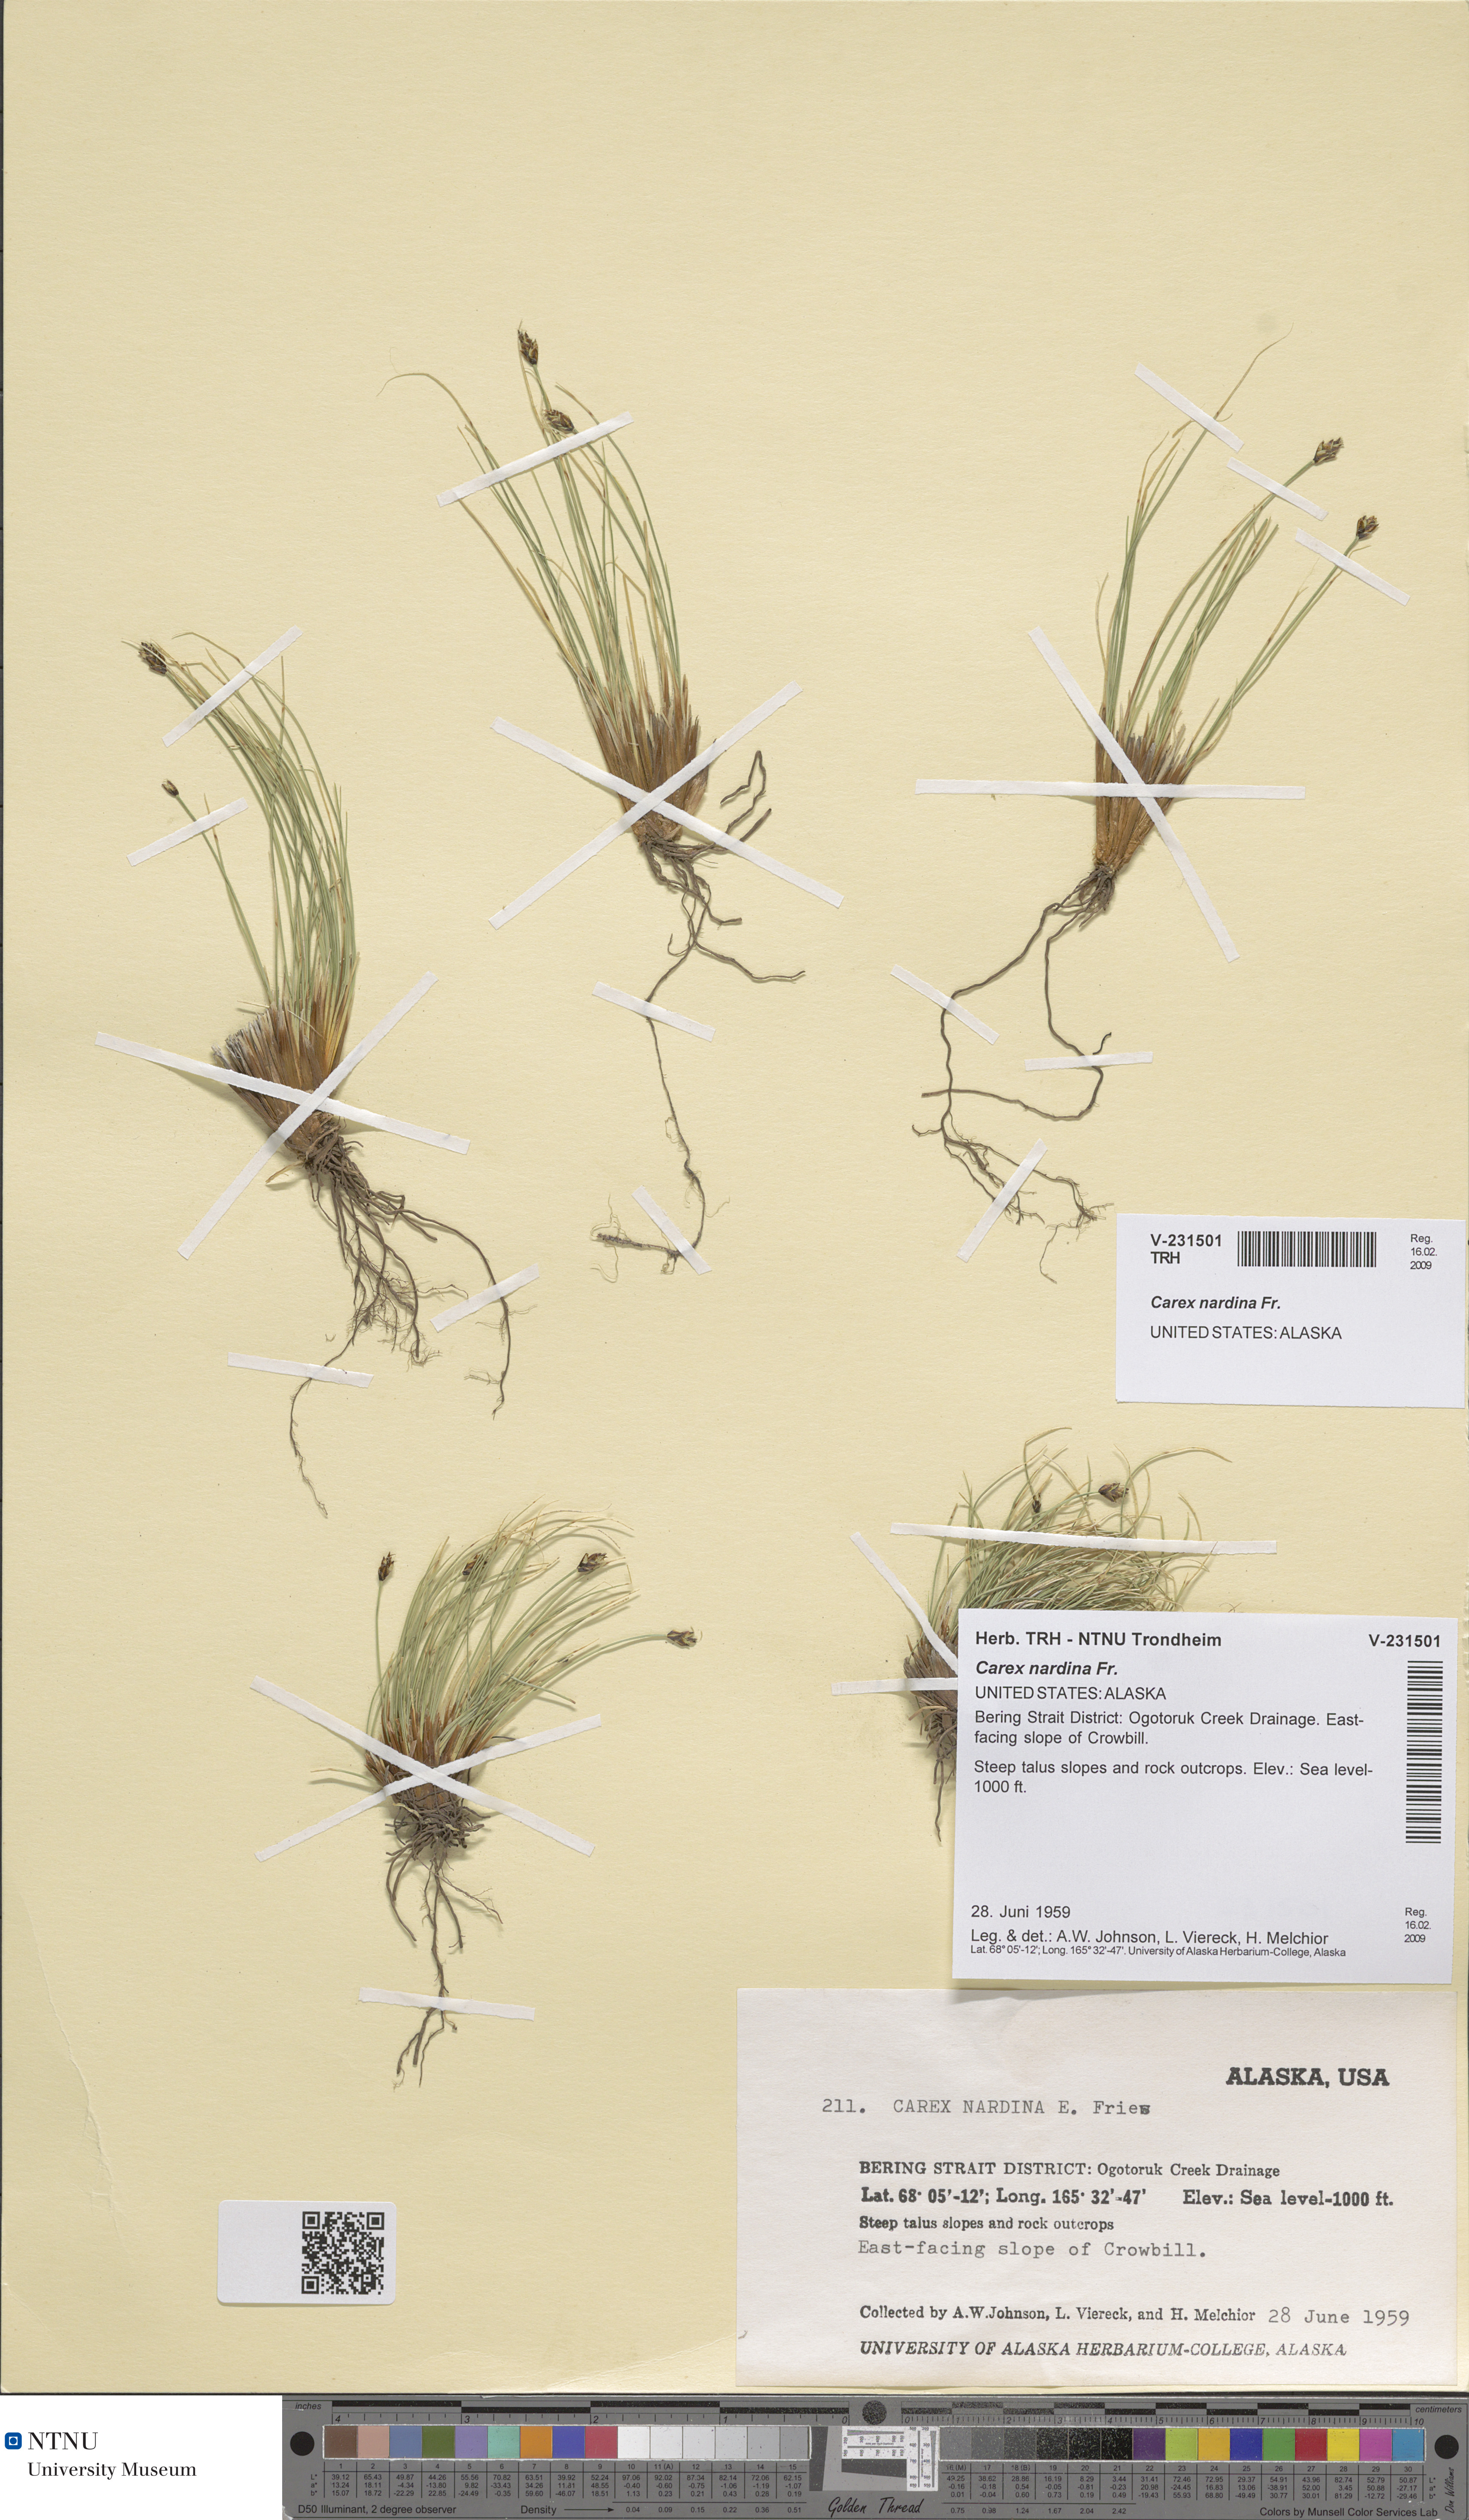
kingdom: Plantae
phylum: Tracheophyta
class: Liliopsida
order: Poales
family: Cyperaceae
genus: Carex
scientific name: Carex nardina
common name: Nard sedge
